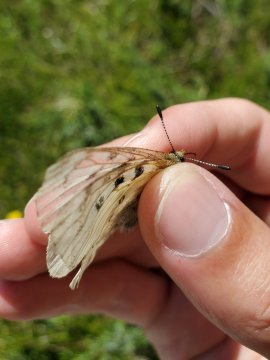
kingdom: Animalia
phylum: Arthropoda
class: Insecta
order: Lepidoptera
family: Papilionidae
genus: Parnassius
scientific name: Parnassius smintheus
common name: Rocky Mountain Parnassian
